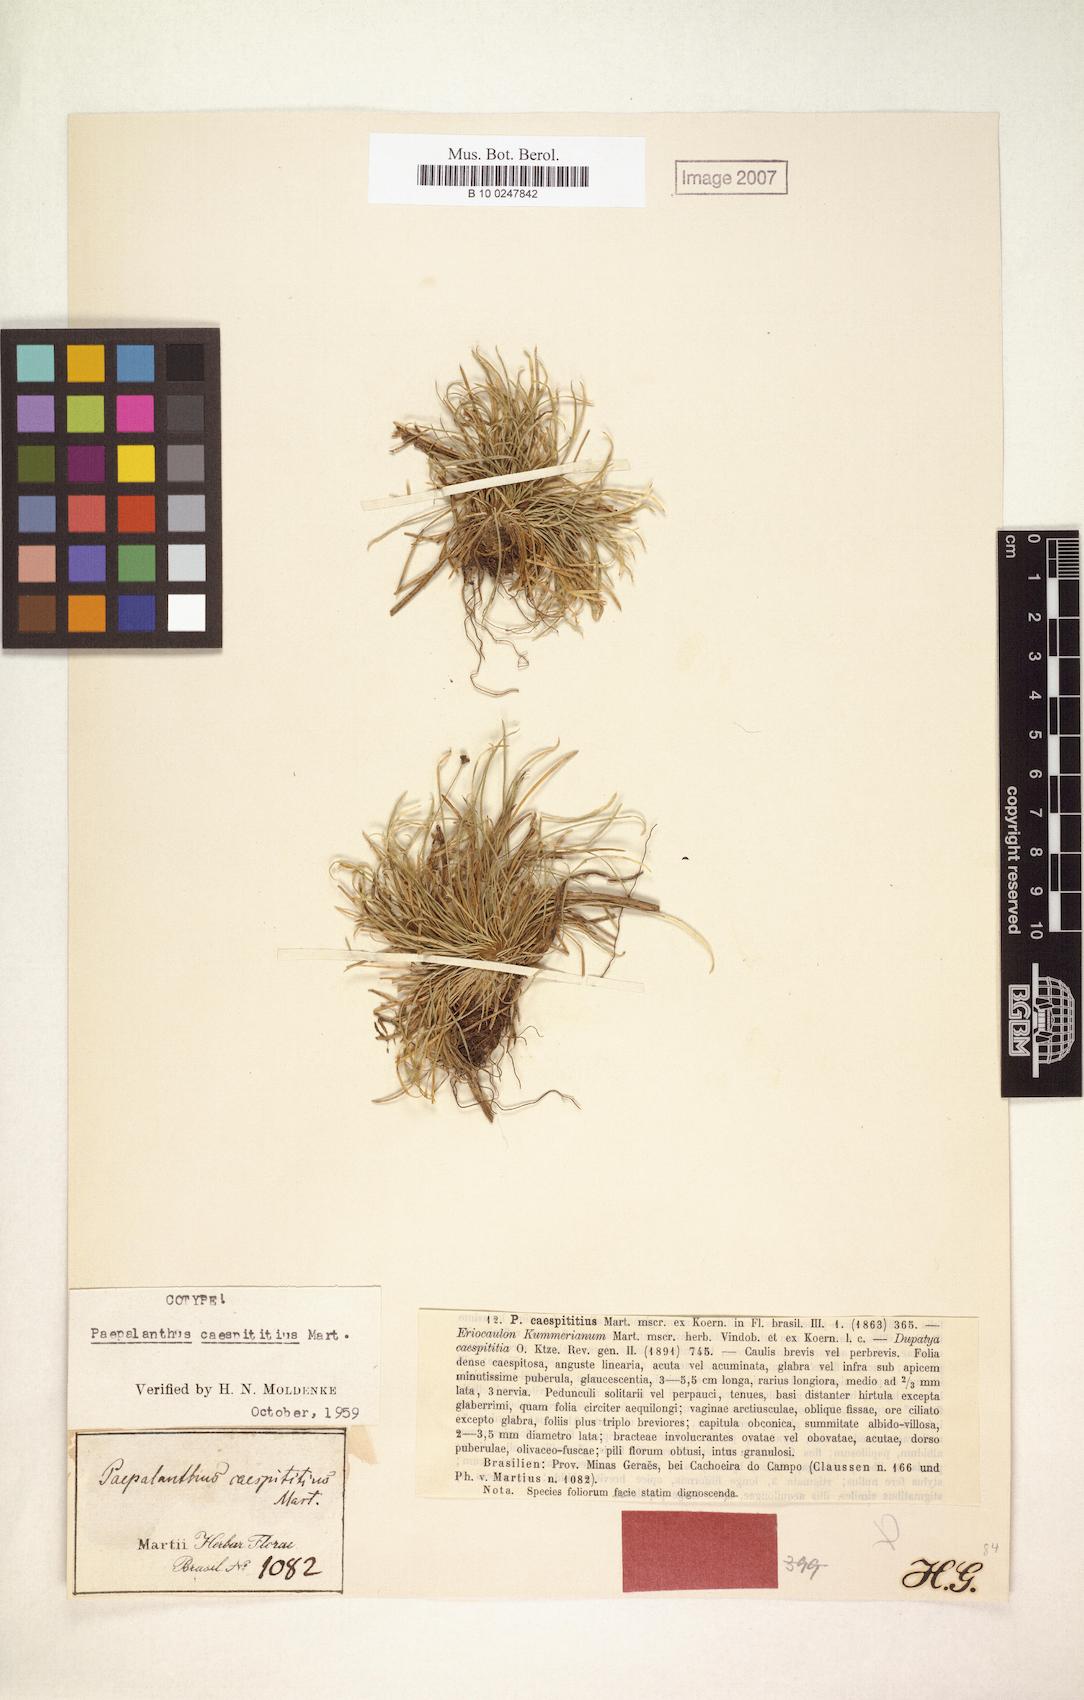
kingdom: Plantae
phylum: Tracheophyta
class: Liliopsida
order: Poales
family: Eriocaulaceae
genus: Paepalanthus
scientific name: Paepalanthus caespititius
